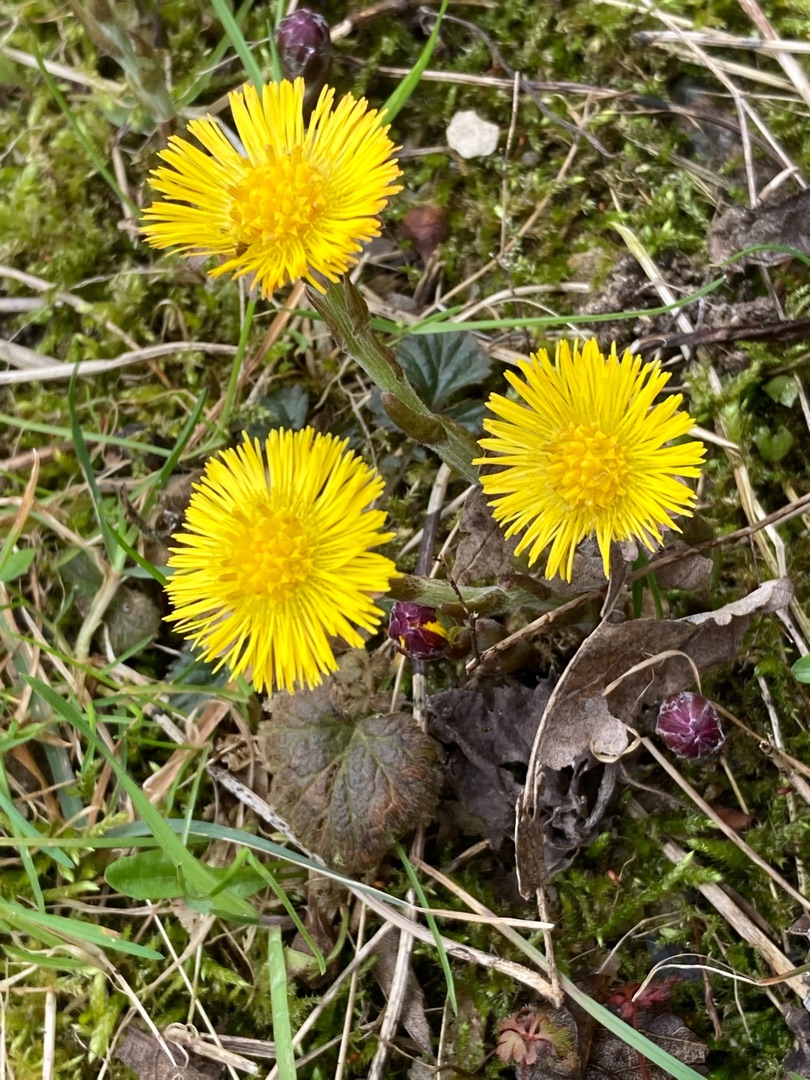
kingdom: Plantae
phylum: Tracheophyta
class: Magnoliopsida
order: Asterales
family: Asteraceae
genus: Tussilago
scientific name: Tussilago farfara
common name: Følfod
